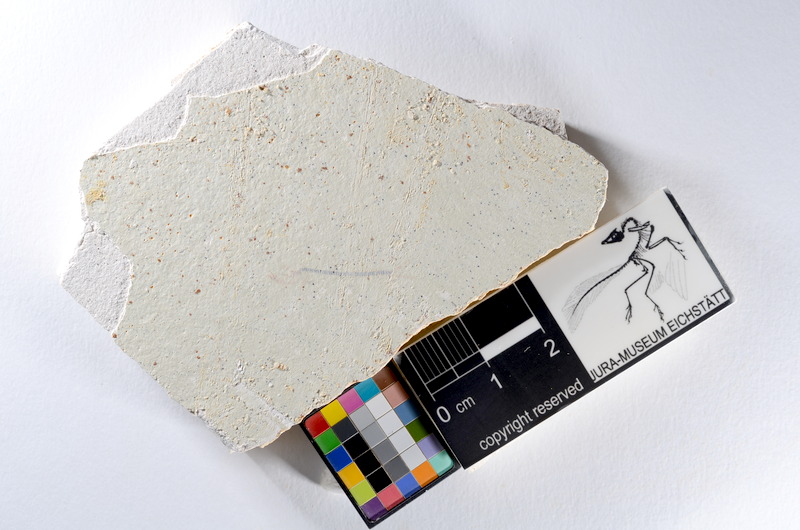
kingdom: Animalia
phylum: Chordata
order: Salmoniformes
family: Orthogonikleithridae
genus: Orthogonikleithrus
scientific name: Orthogonikleithrus hoelli
